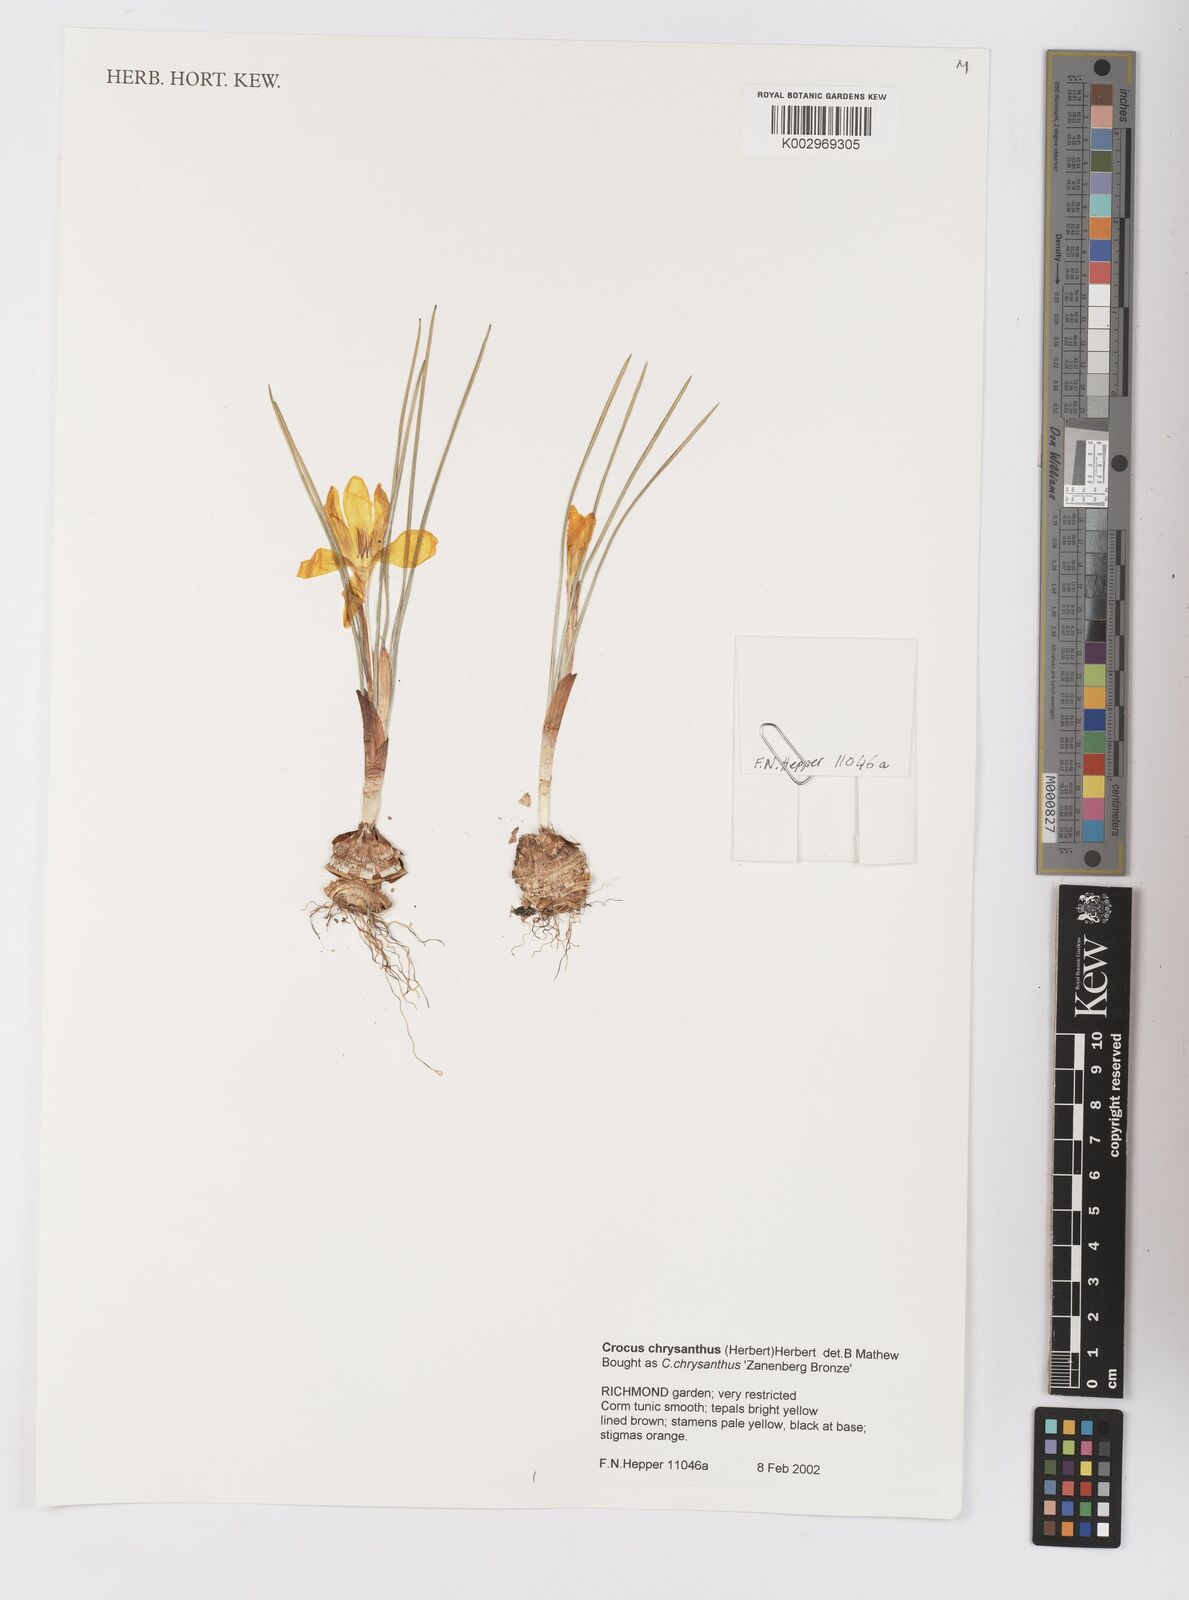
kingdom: Plantae
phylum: Tracheophyta
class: Liliopsida
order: Asparagales
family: Iridaceae
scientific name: Iridaceae
